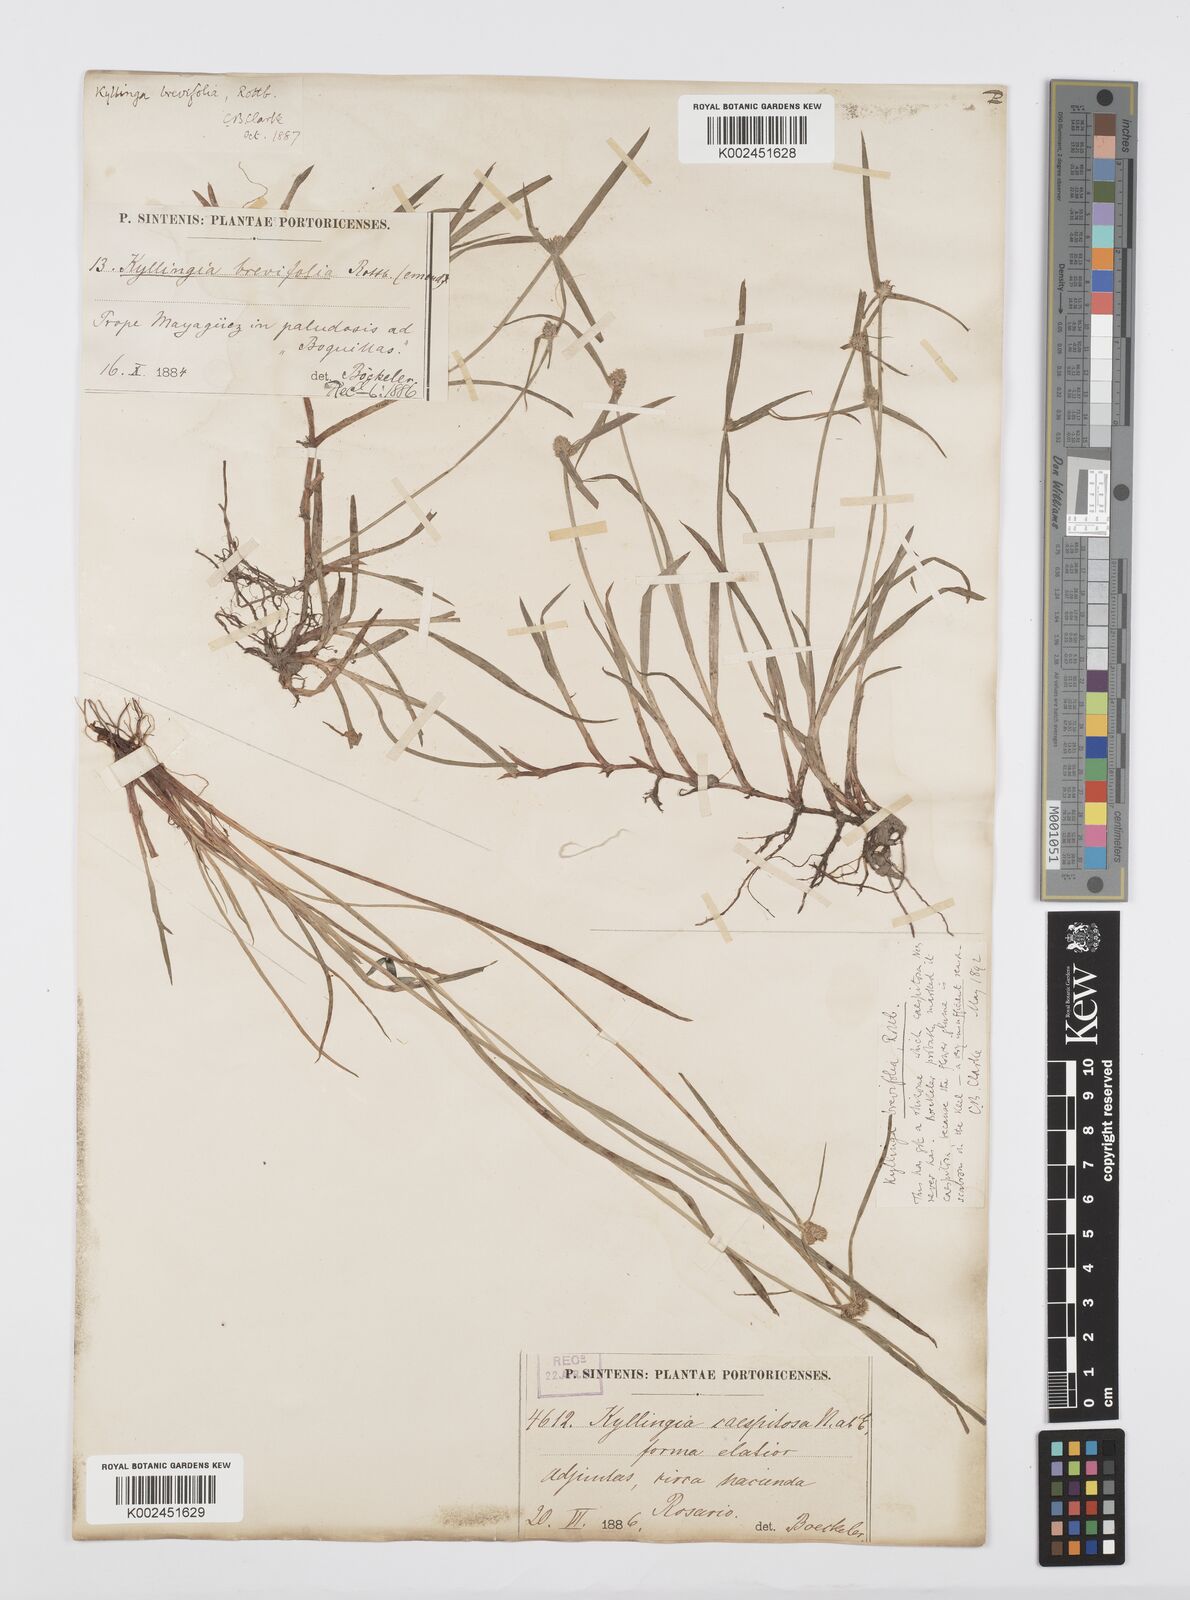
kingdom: Plantae
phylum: Tracheophyta
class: Liliopsida
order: Poales
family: Cyperaceae
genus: Cyperus
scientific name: Cyperus brevifolius
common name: Globe kyllinga
